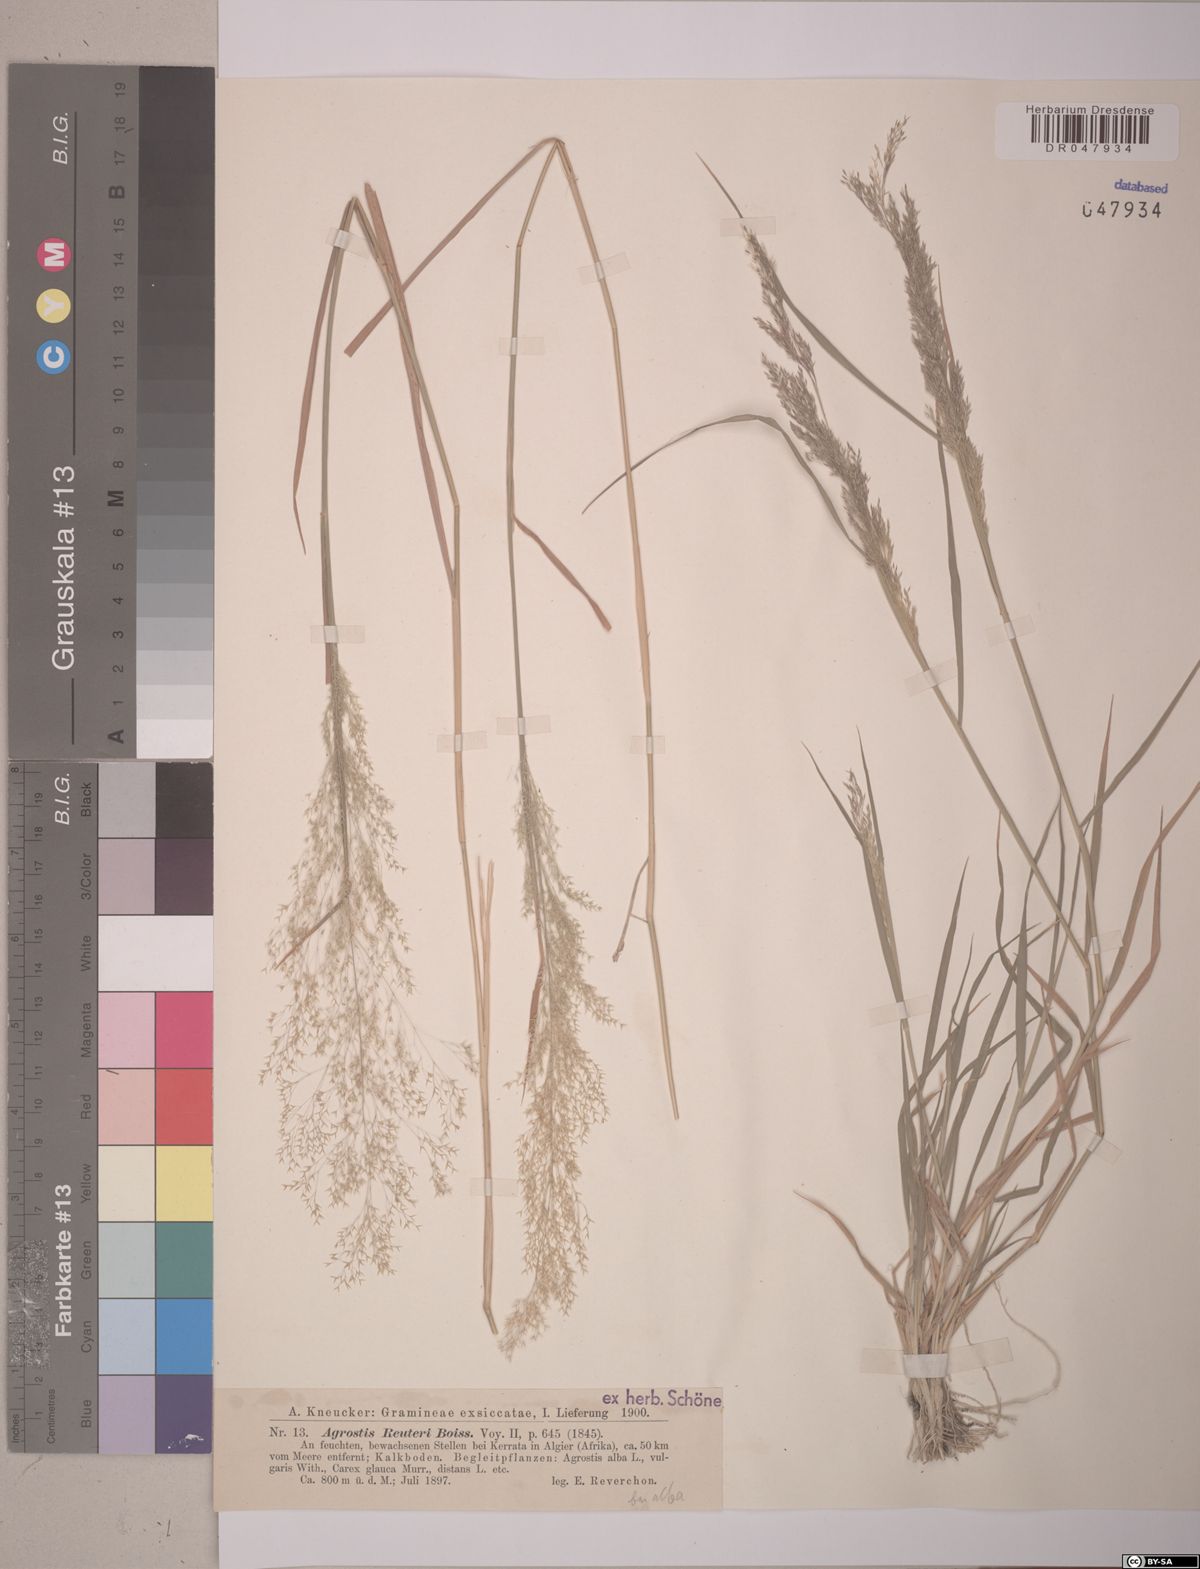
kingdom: Plantae
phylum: Tracheophyta
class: Liliopsida
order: Poales
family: Poaceae
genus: Agrostis
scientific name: Agrostis reuteri
